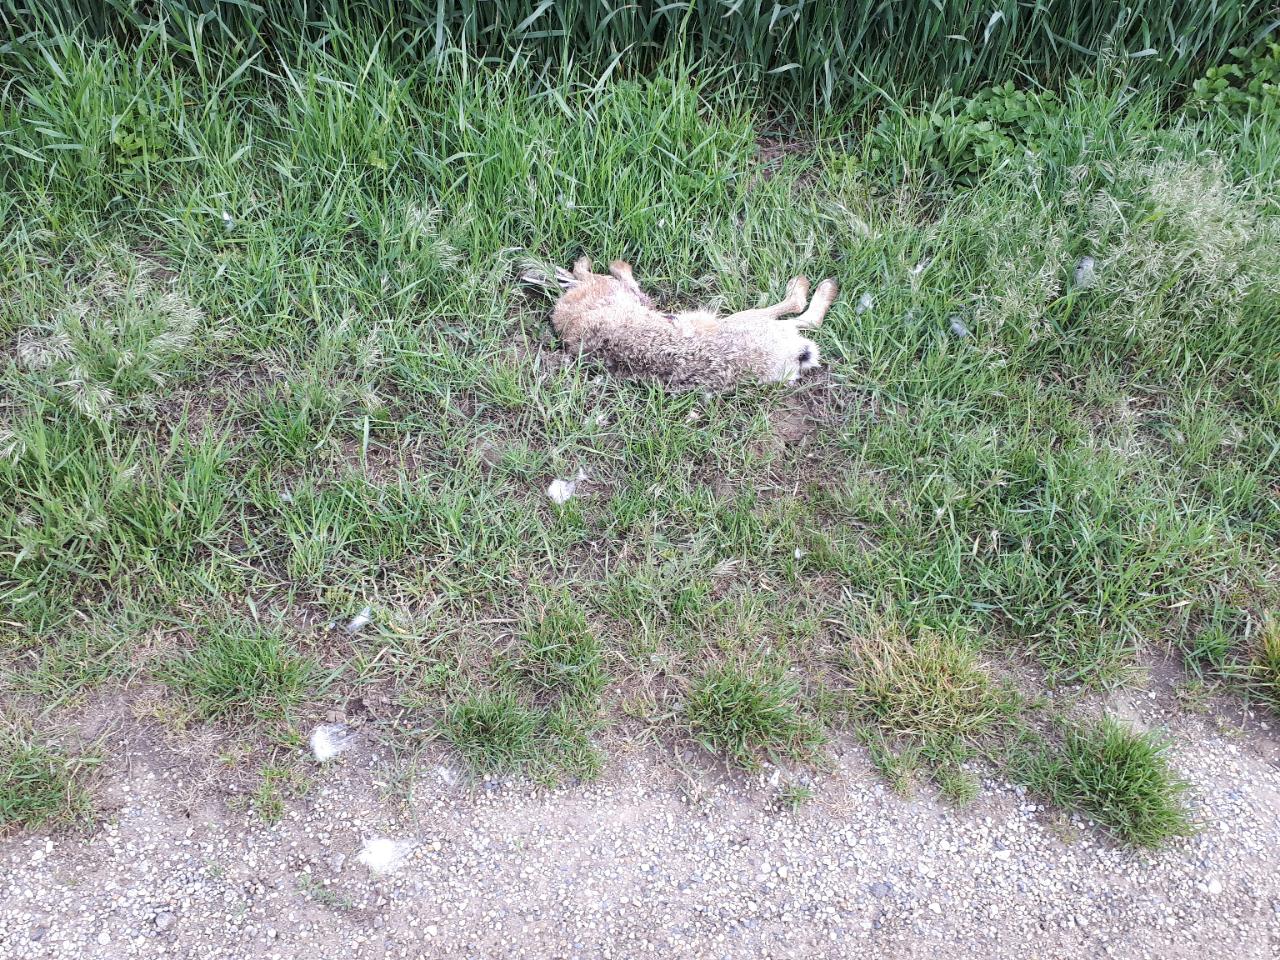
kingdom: Animalia
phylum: Chordata
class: Mammalia
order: Lagomorpha
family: Leporidae
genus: Lepus
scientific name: Lepus europaeus
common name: European hare
